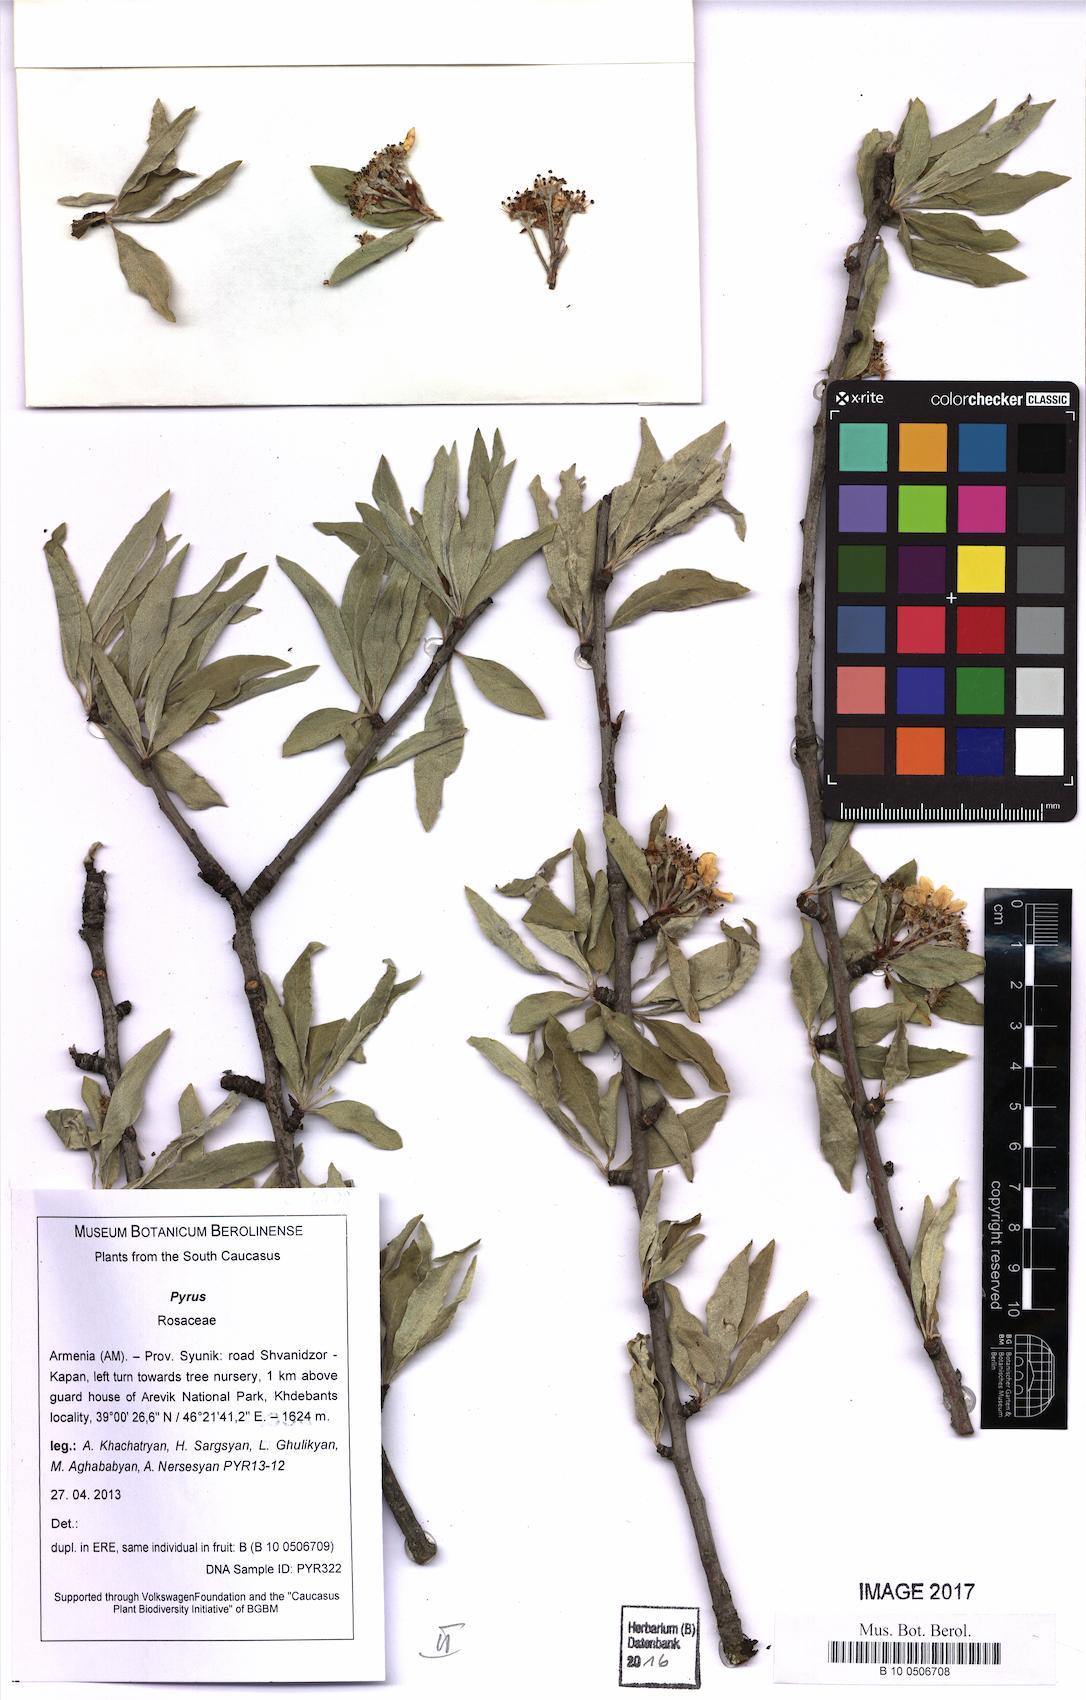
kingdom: Plantae
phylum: Tracheophyta
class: Magnoliopsida
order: Rosales
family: Rosaceae
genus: Pyrus
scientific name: Pyrus
